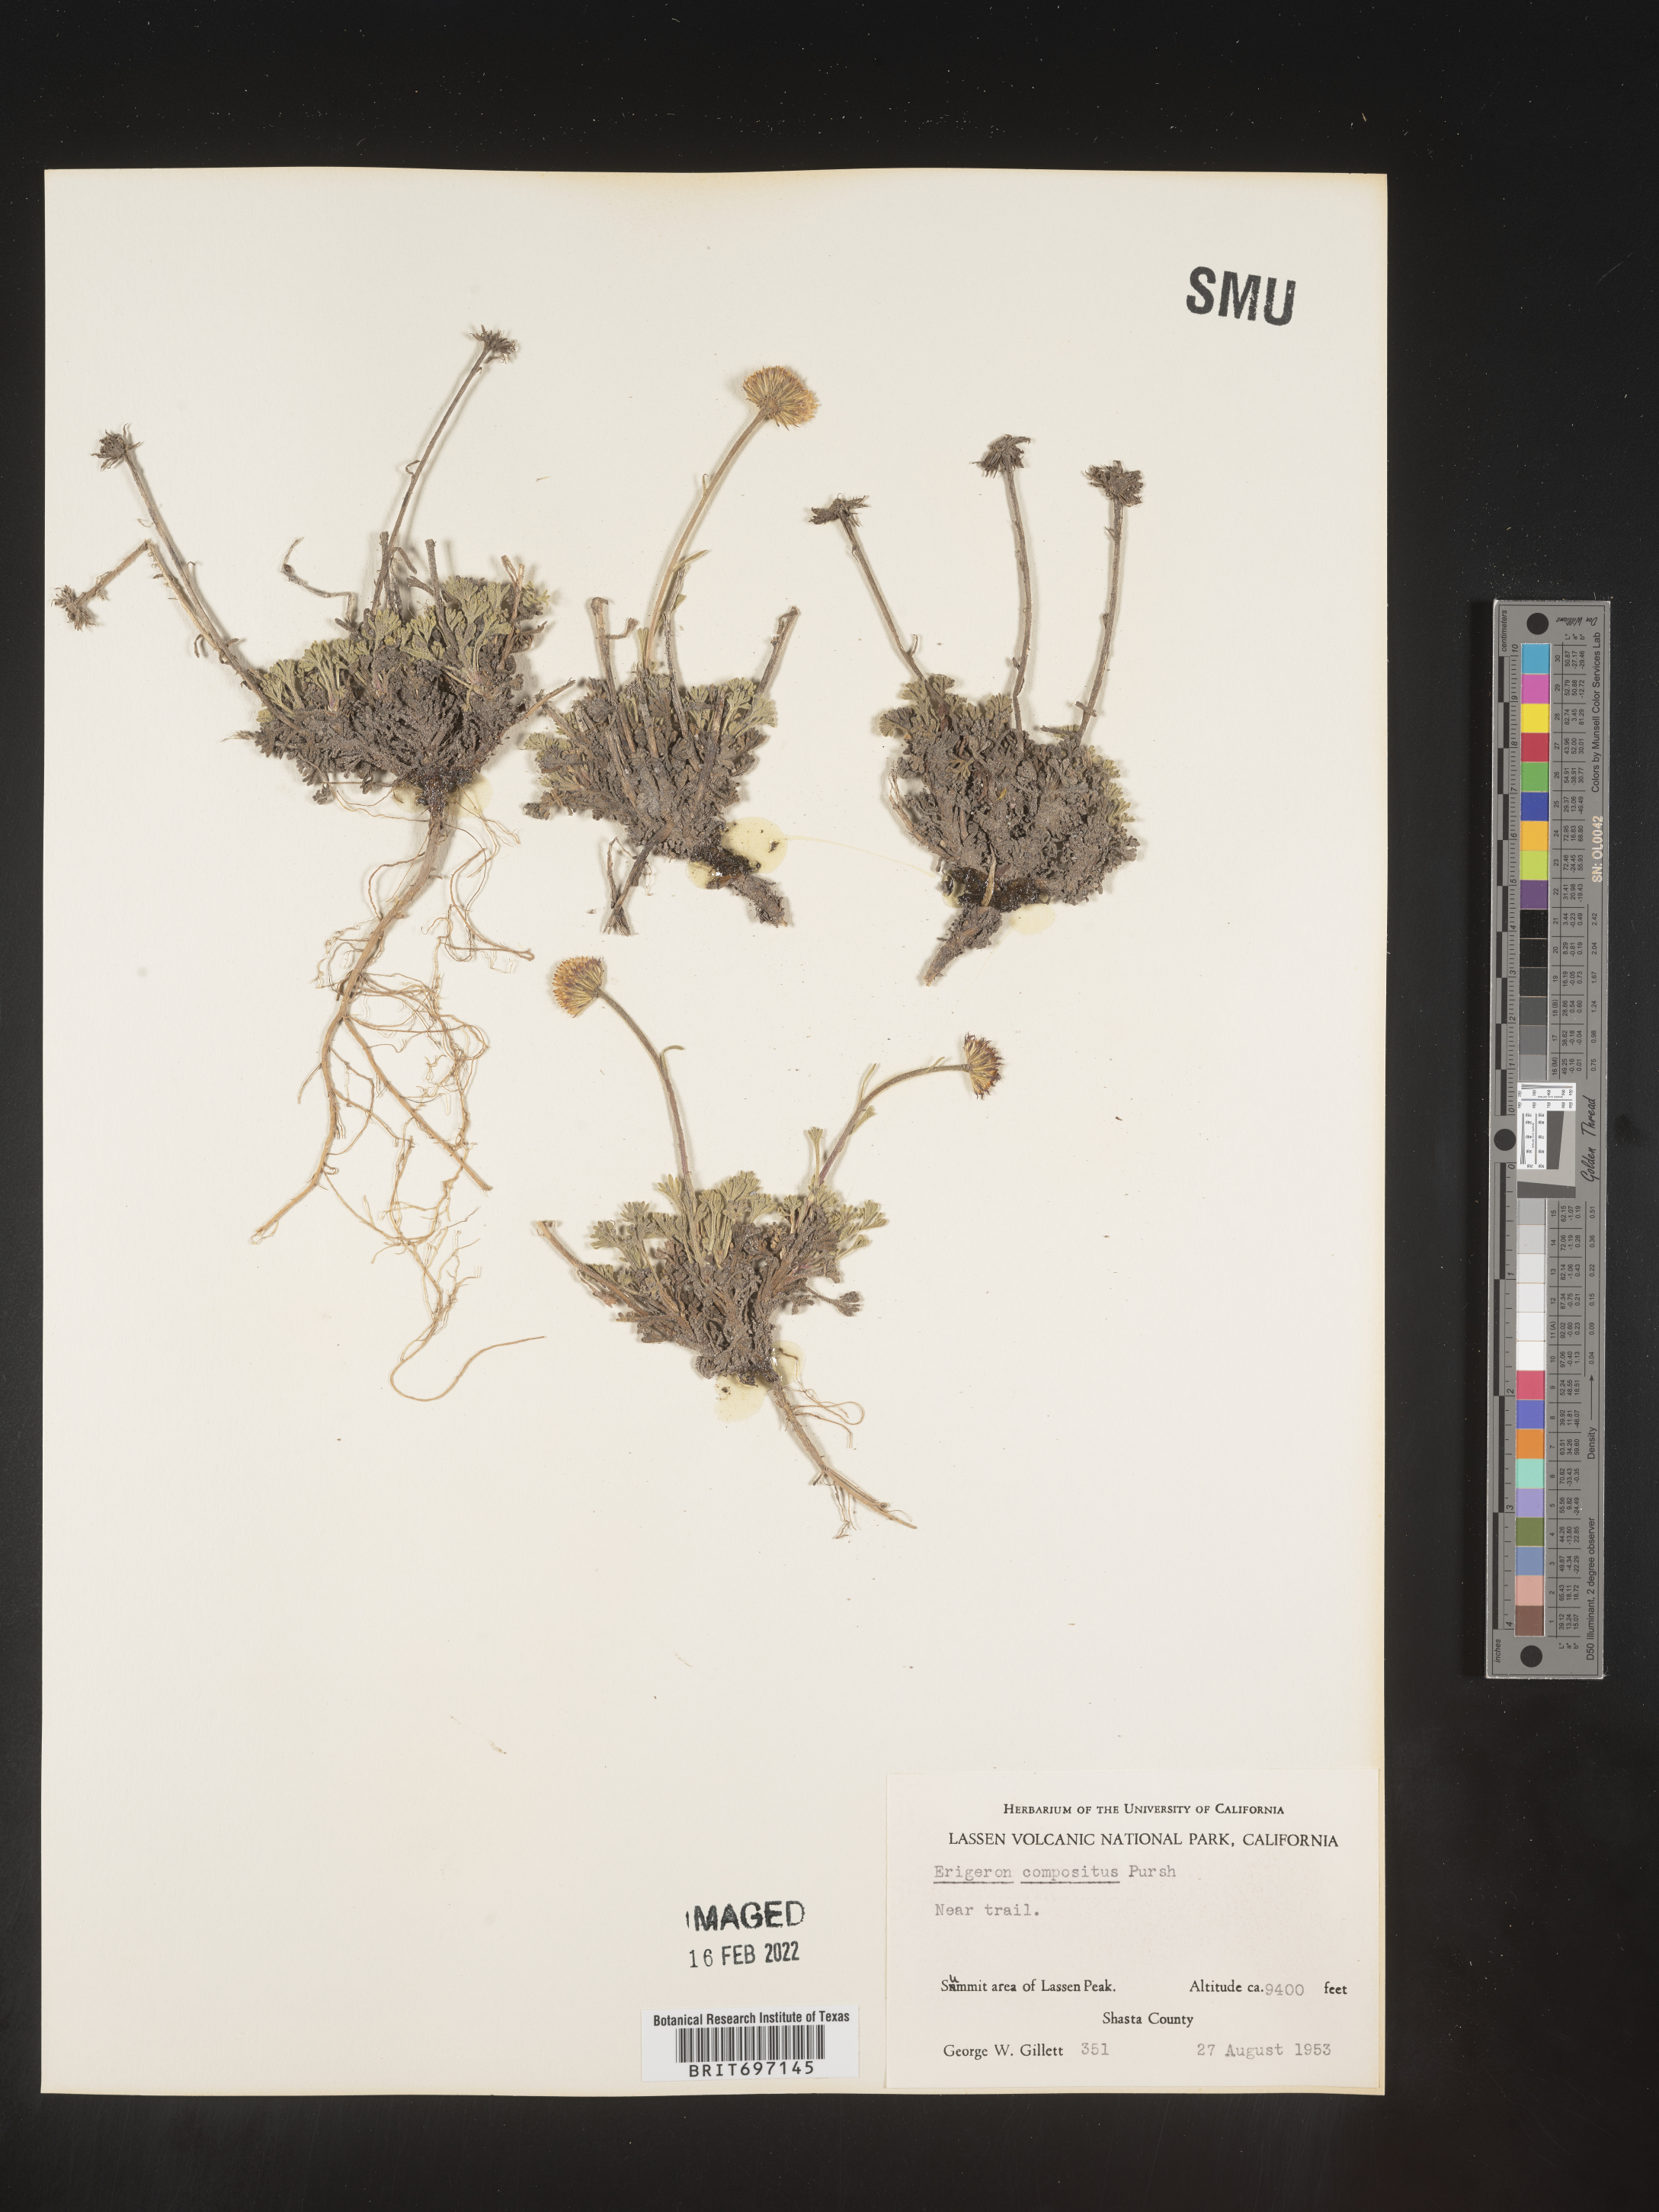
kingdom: Plantae
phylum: Tracheophyta
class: Magnoliopsida
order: Asterales
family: Asteraceae
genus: Erigeron
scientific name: Erigeron compositus
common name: Dwarf mountain fleabane
